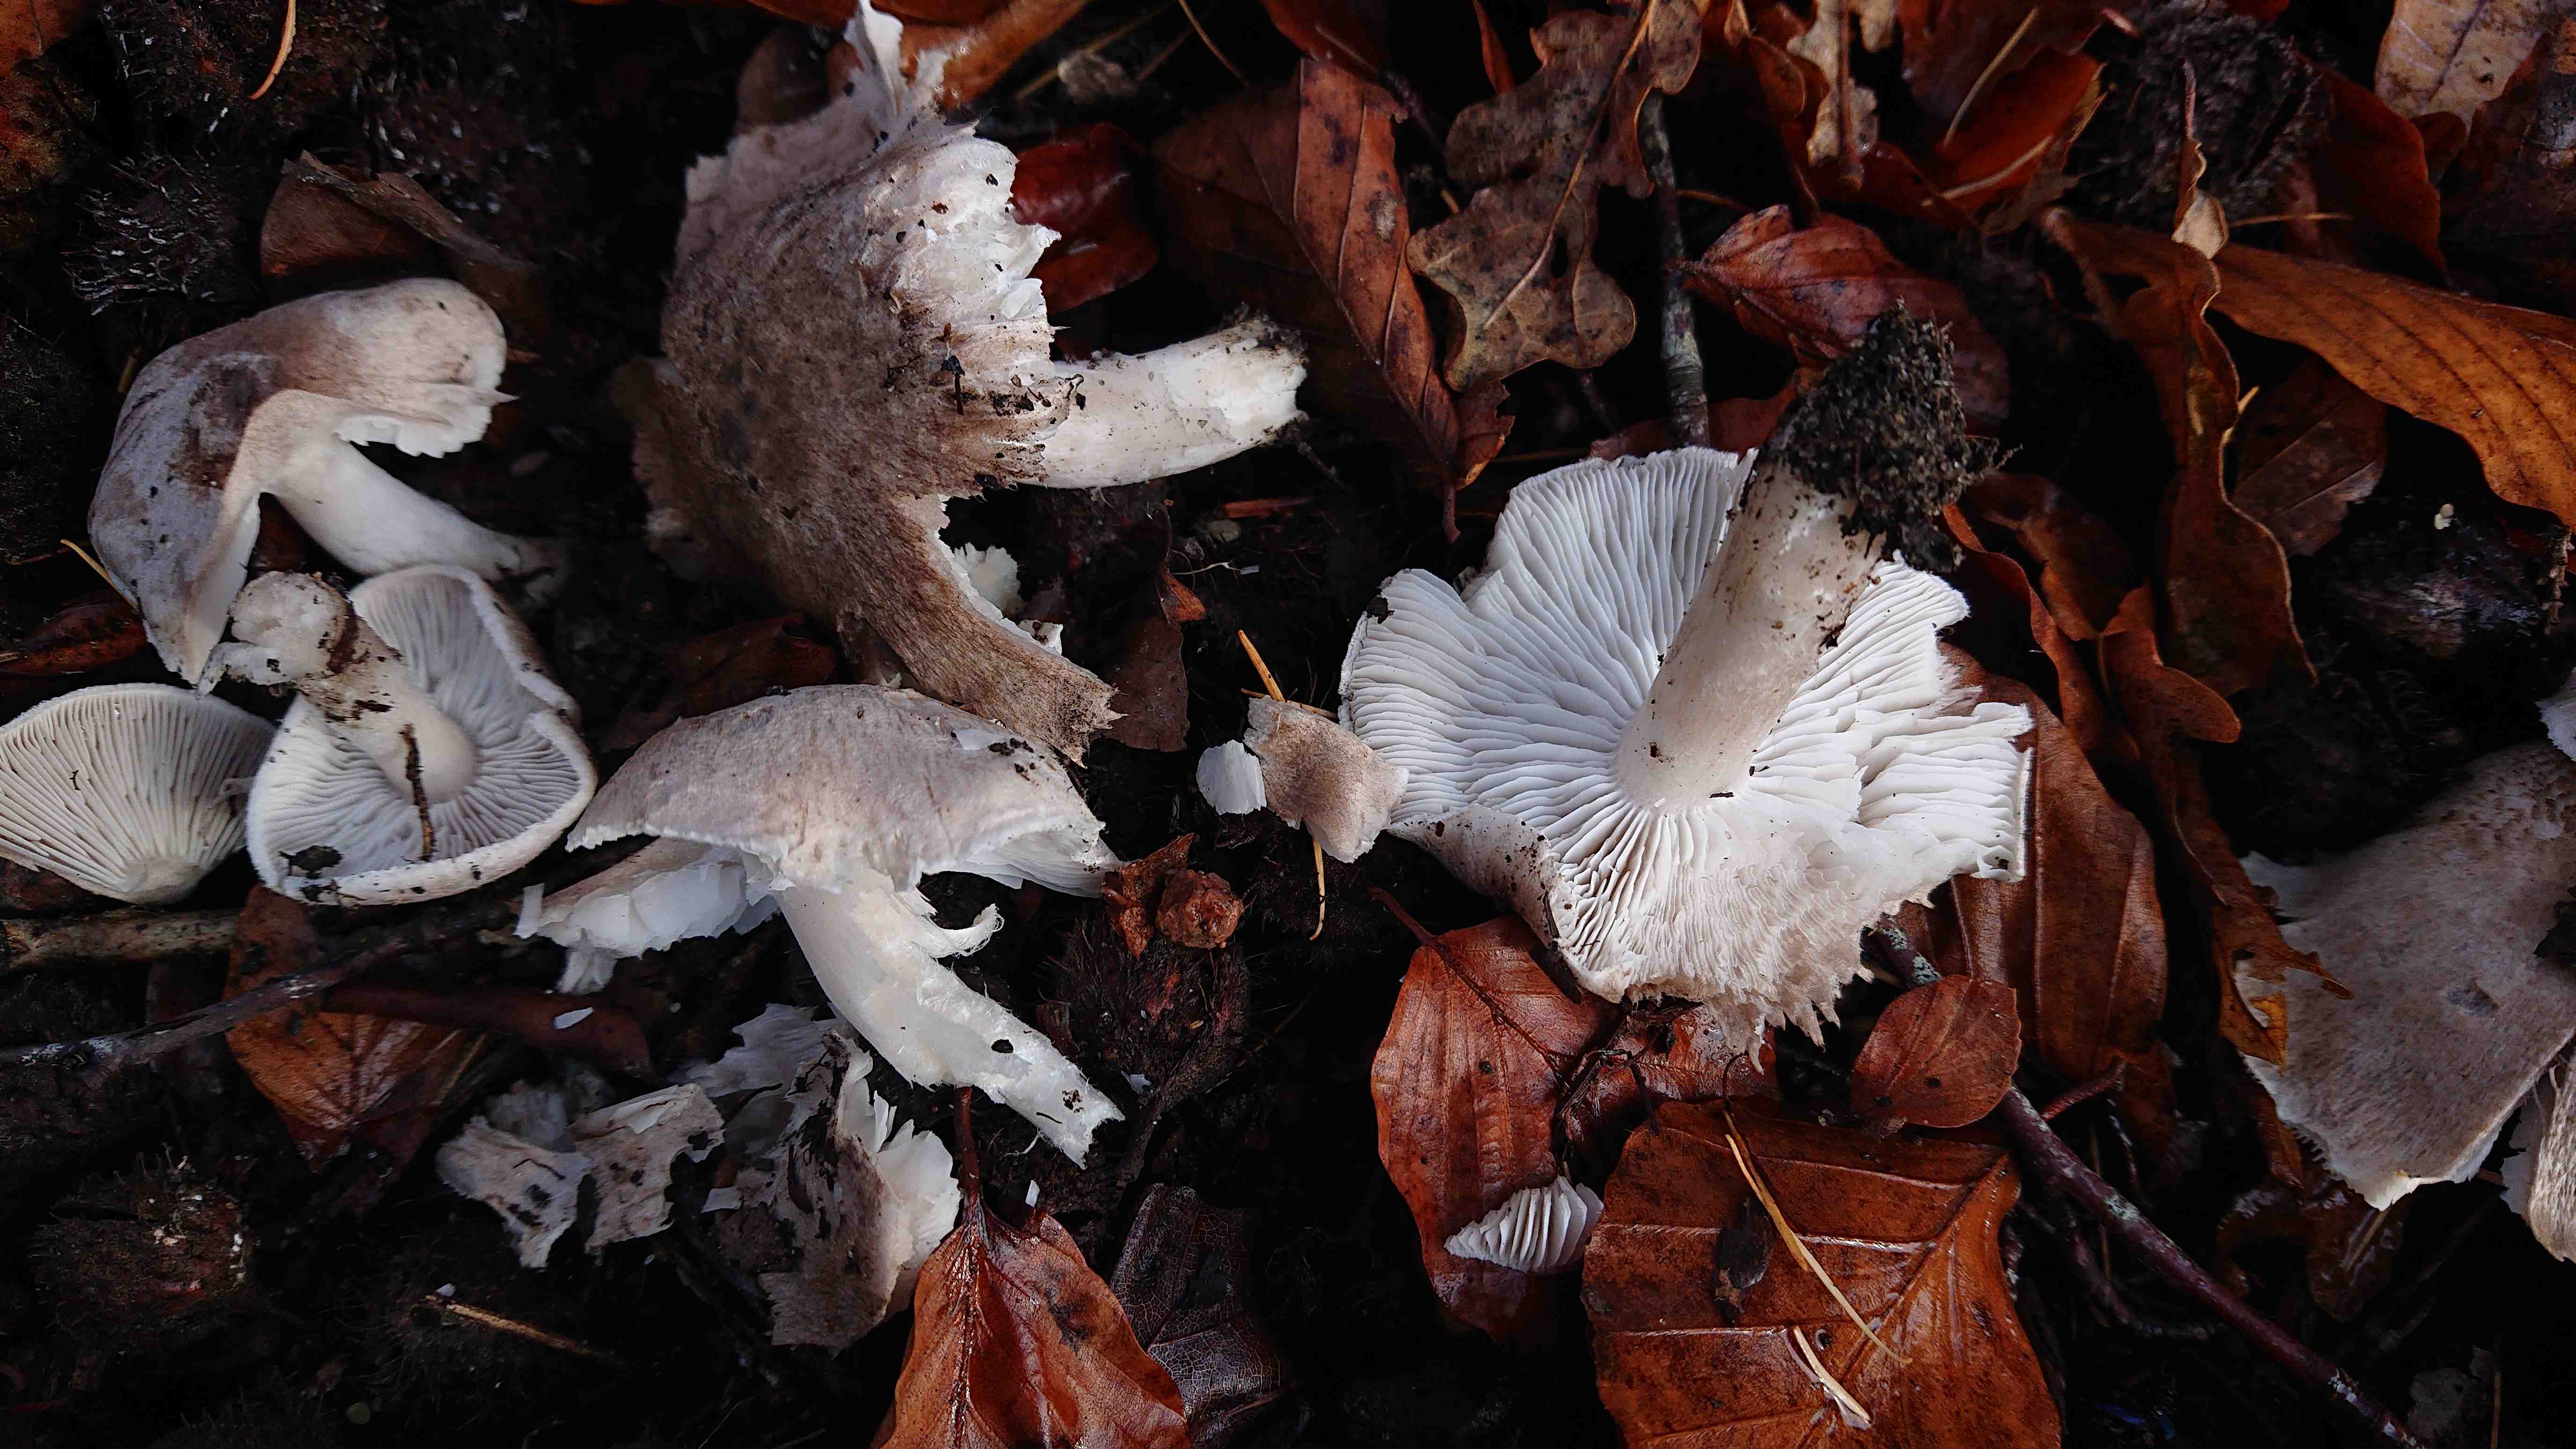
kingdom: Fungi
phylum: Basidiomycota
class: Agaricomycetes
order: Agaricales
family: Tricholomataceae
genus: Tricholoma
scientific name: Tricholoma scalpturatum
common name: gulplettet ridderhat
